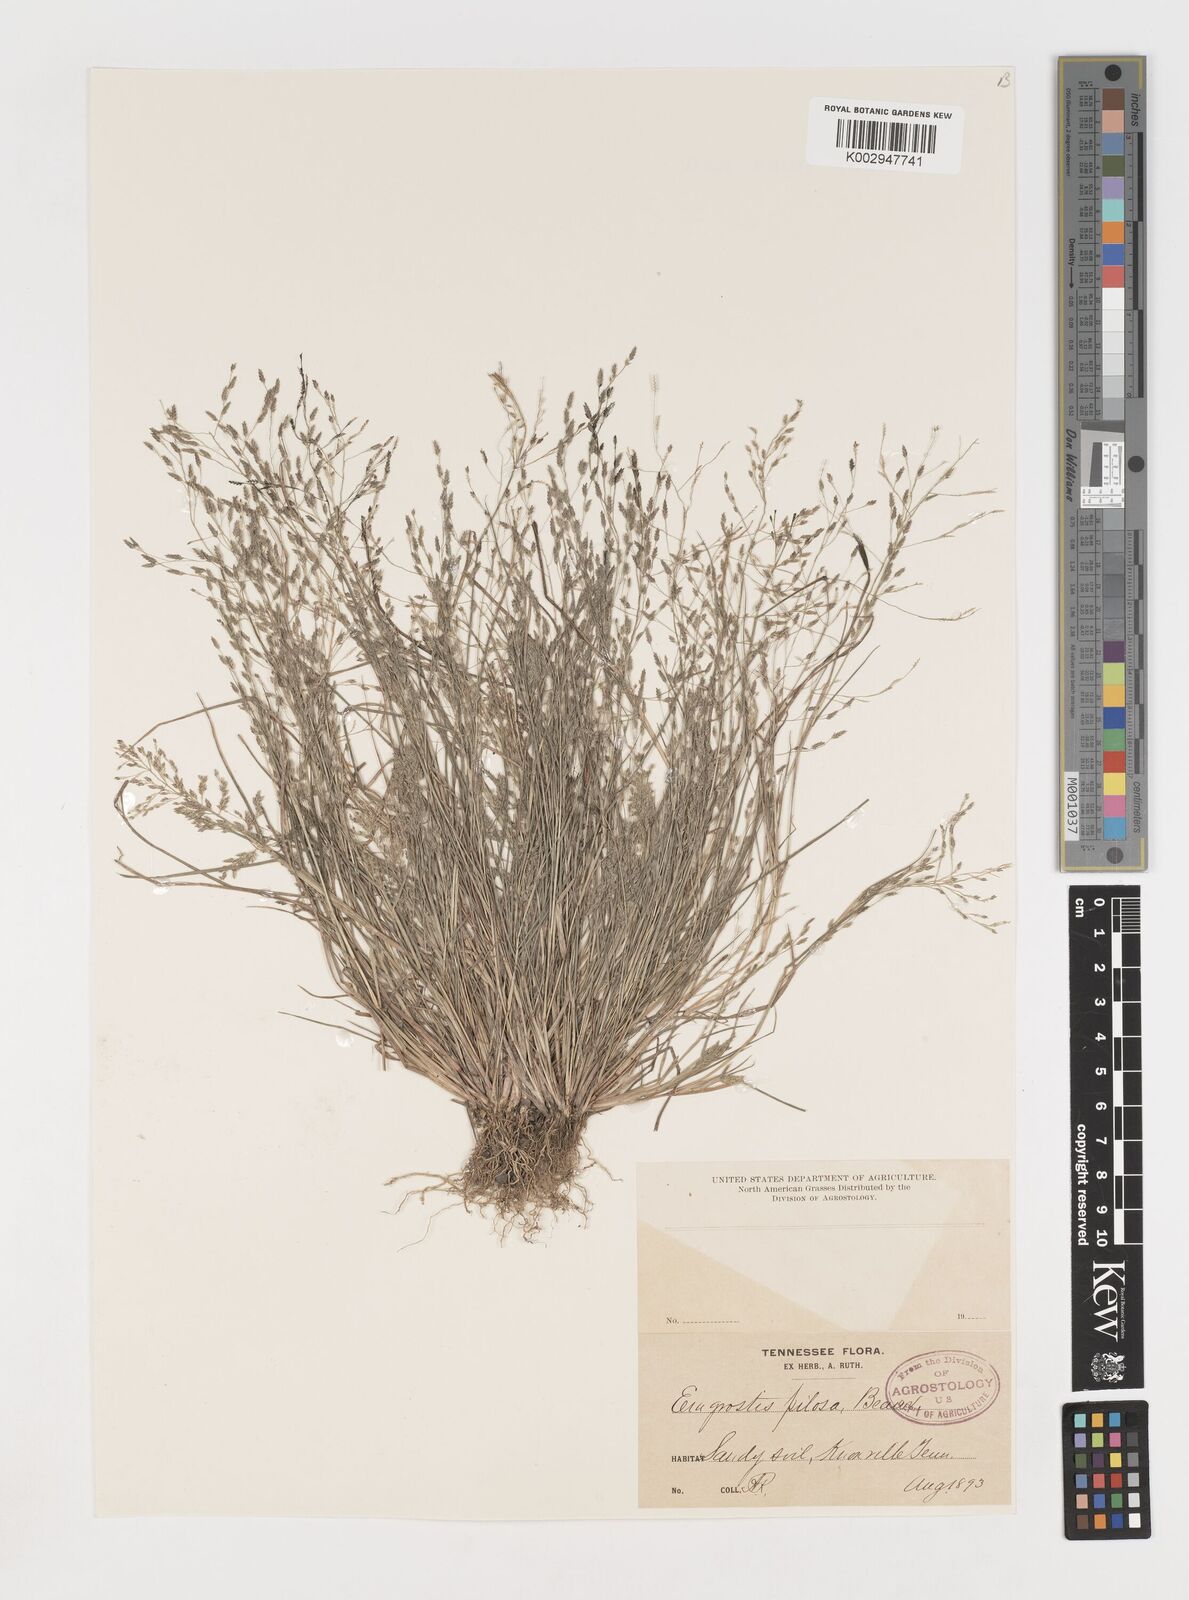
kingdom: Plantae
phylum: Tracheophyta
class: Liliopsida
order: Poales
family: Poaceae
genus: Eragrostis
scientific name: Eragrostis pilosa
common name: Indian lovegrass
